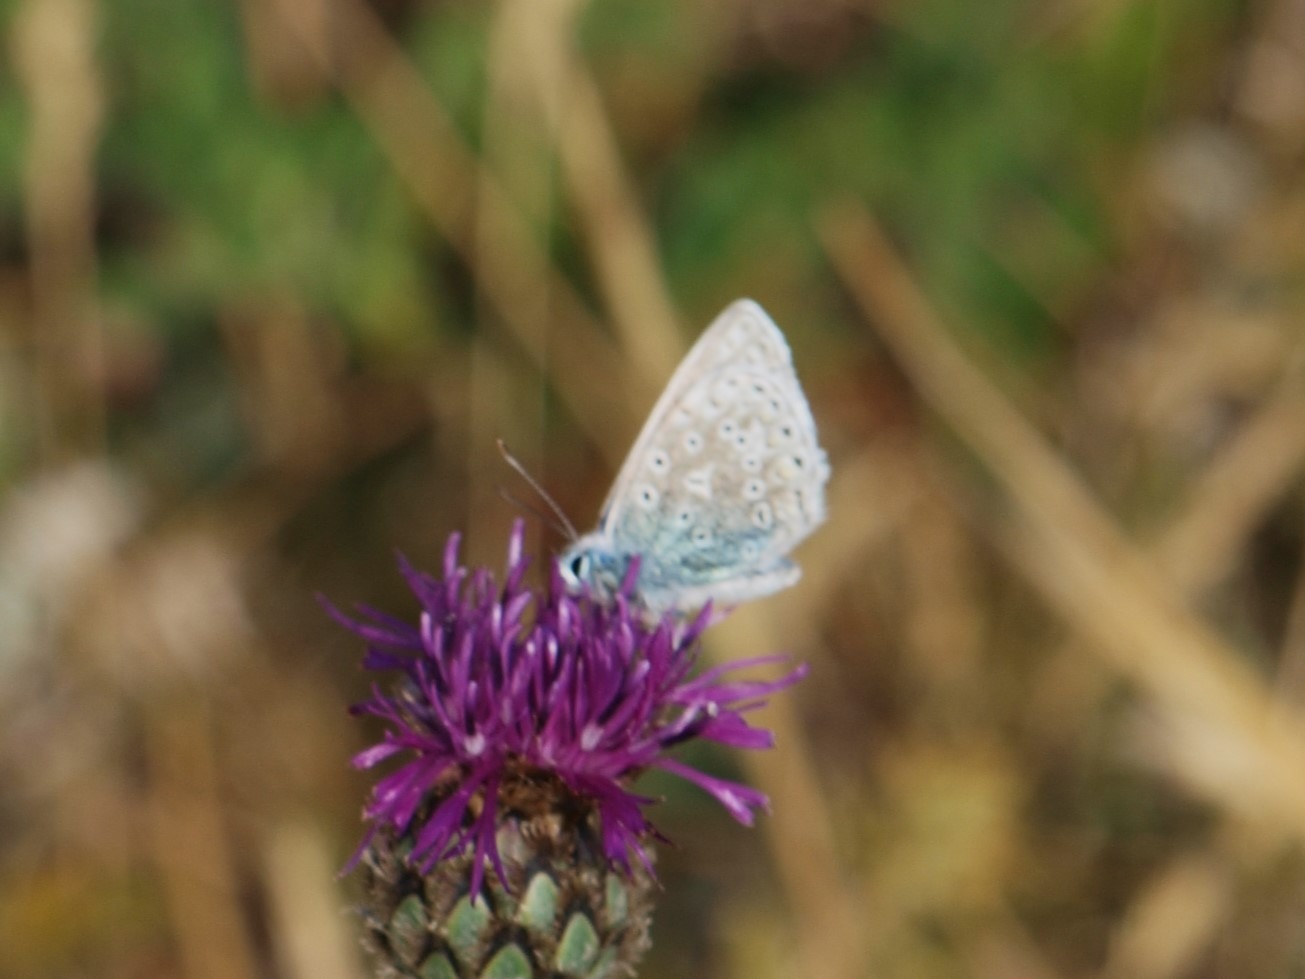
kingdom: Animalia
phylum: Arthropoda
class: Insecta
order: Lepidoptera
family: Lycaenidae
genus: Polyommatus
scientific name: Polyommatus icarus
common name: Almindelig blåfugl
